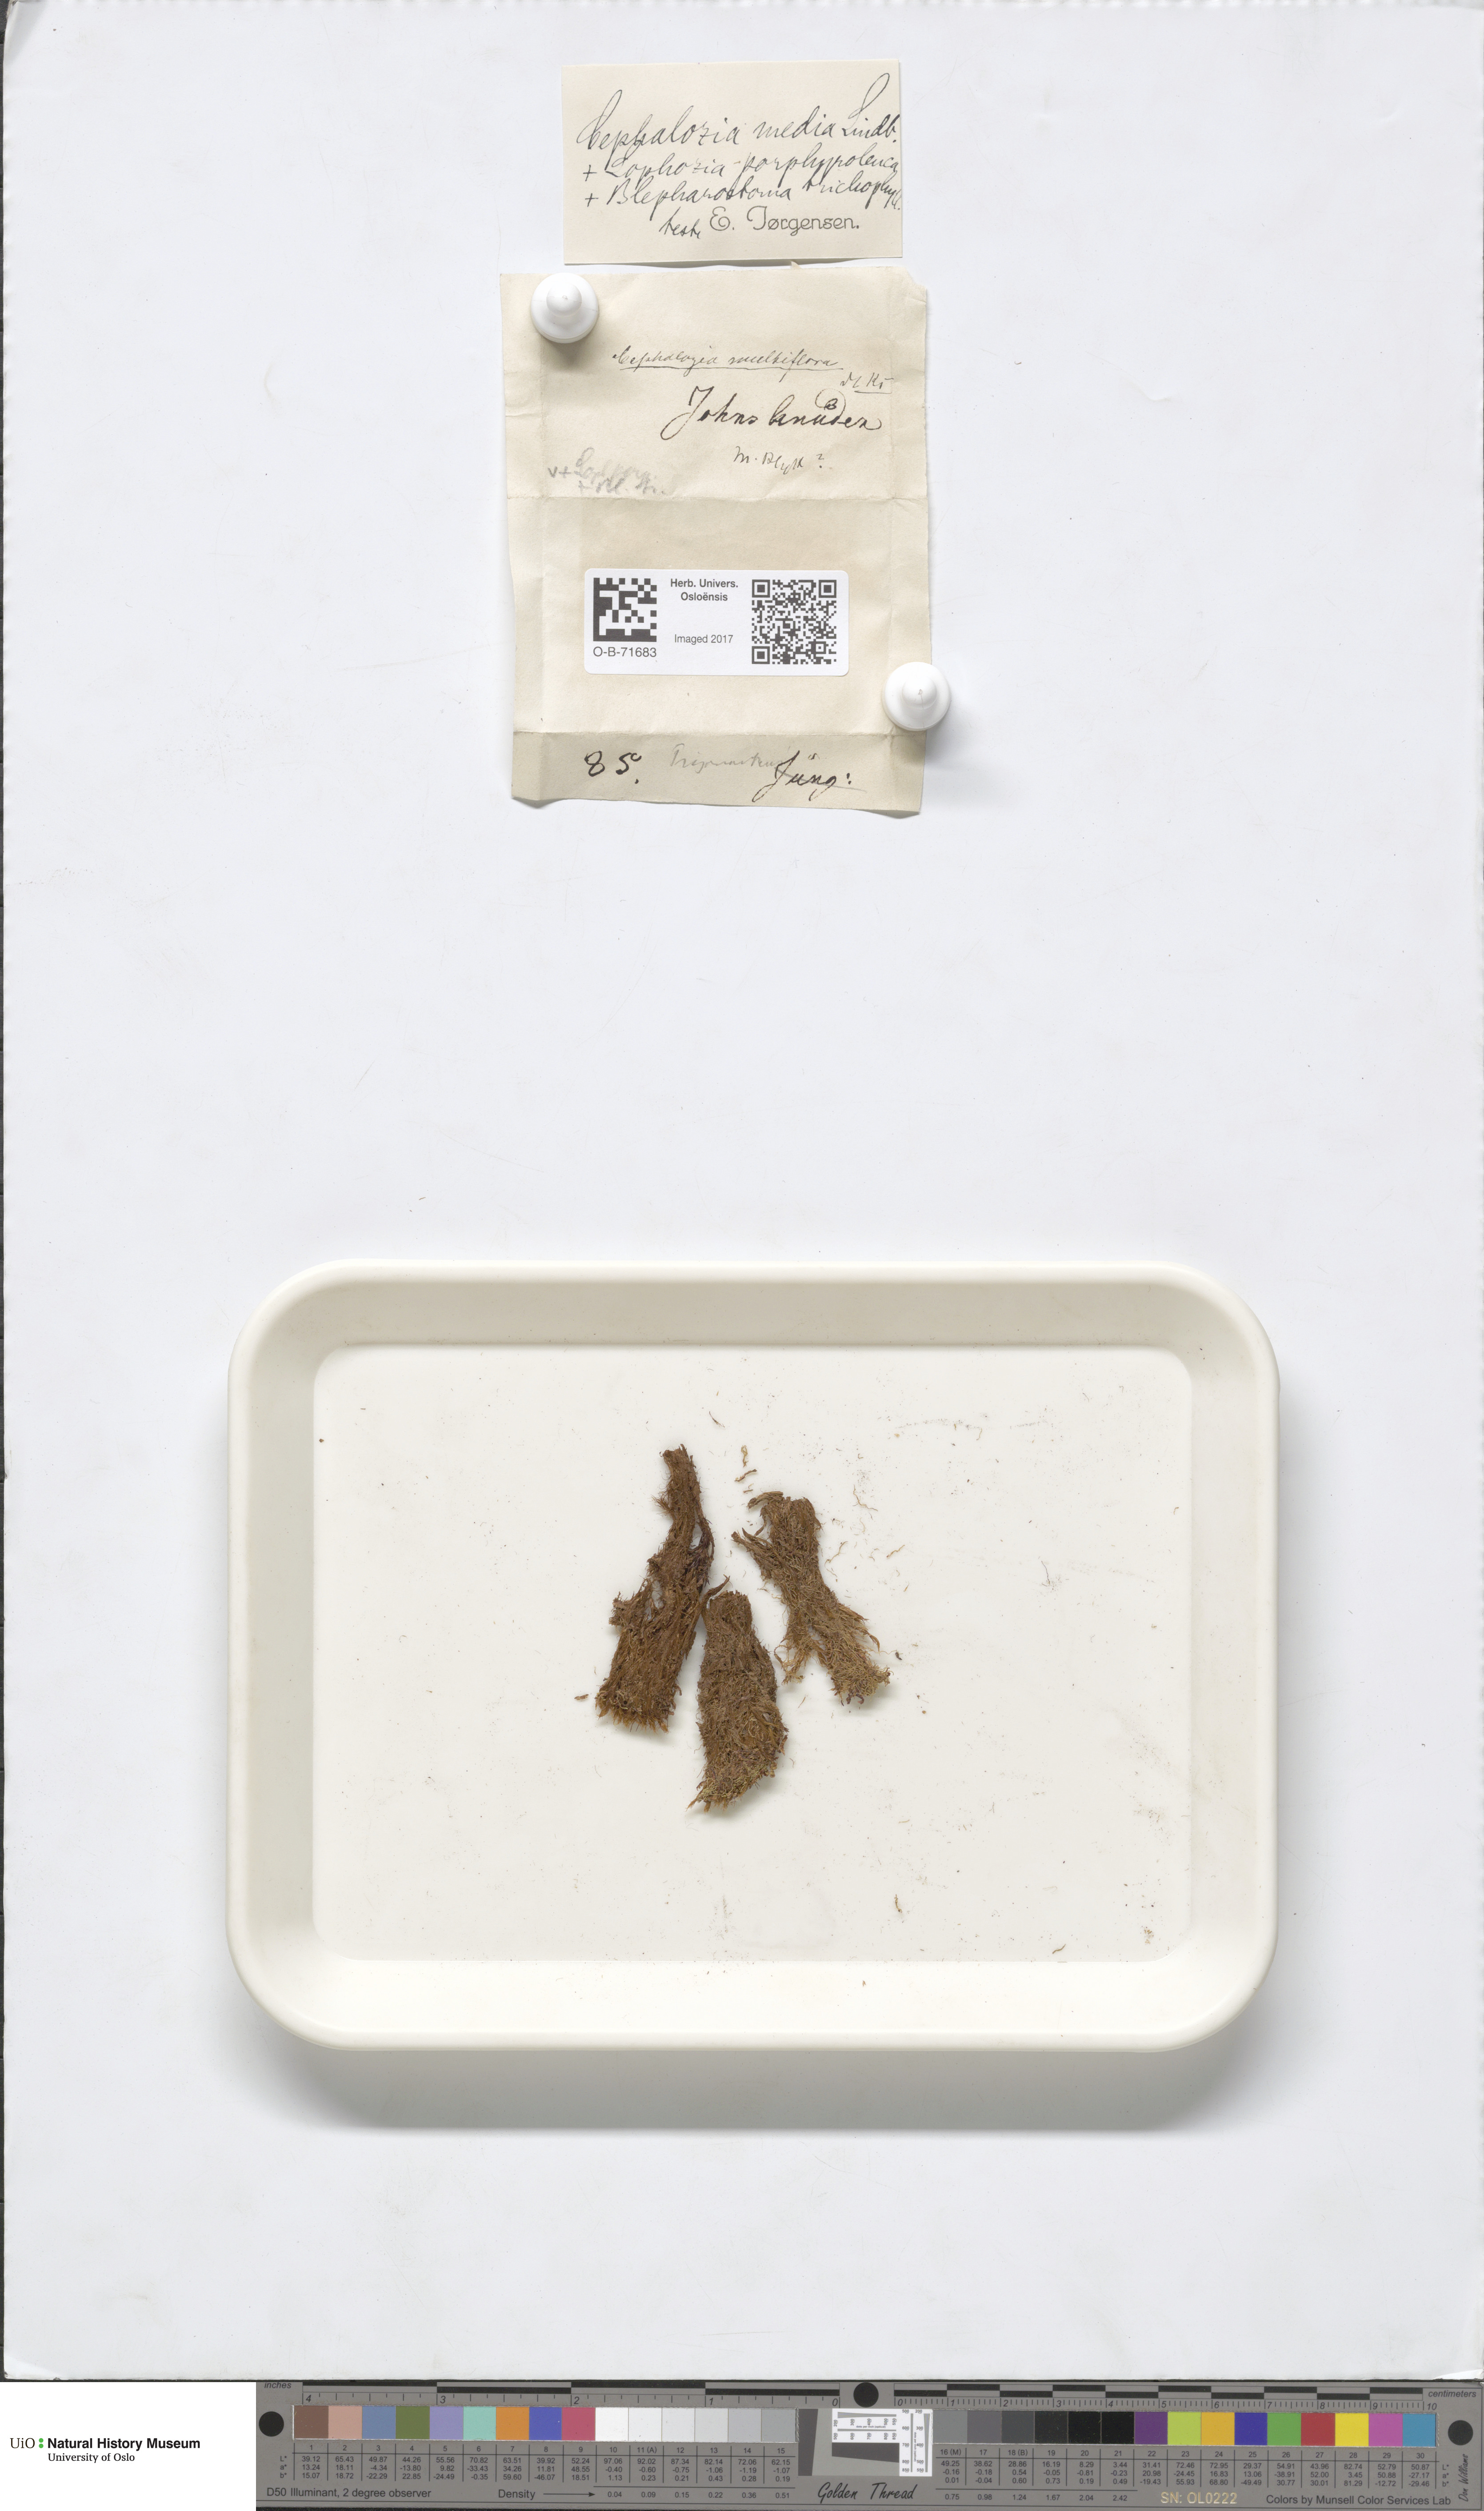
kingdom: Plantae
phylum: Marchantiophyta
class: Jungermanniopsida
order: Jungermanniales
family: Cephaloziaceae
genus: Fuscocephaloziopsis
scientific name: Fuscocephaloziopsis lunulifolia
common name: Moon-leaved pincerwort
